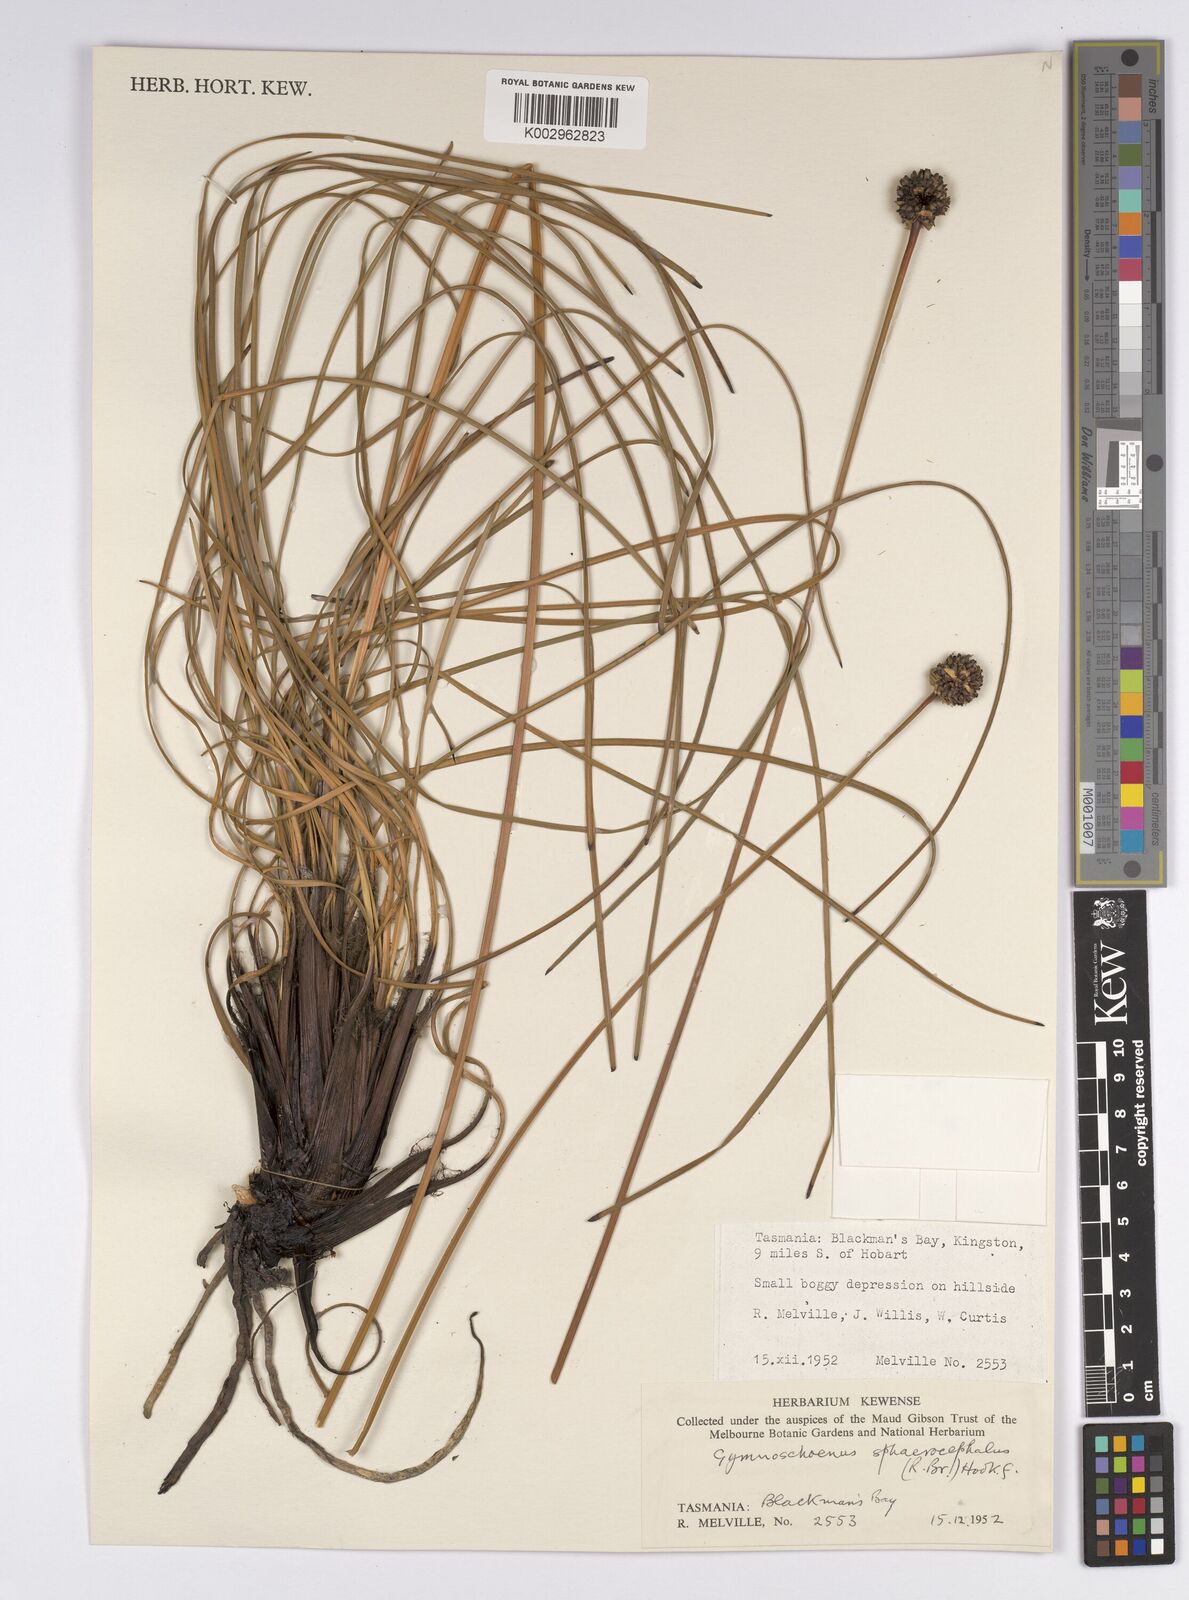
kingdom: Plantae
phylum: Tracheophyta
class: Liliopsida
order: Poales
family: Cyperaceae
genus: Gymnoschoenus
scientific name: Gymnoschoenus sphaerocephalus
